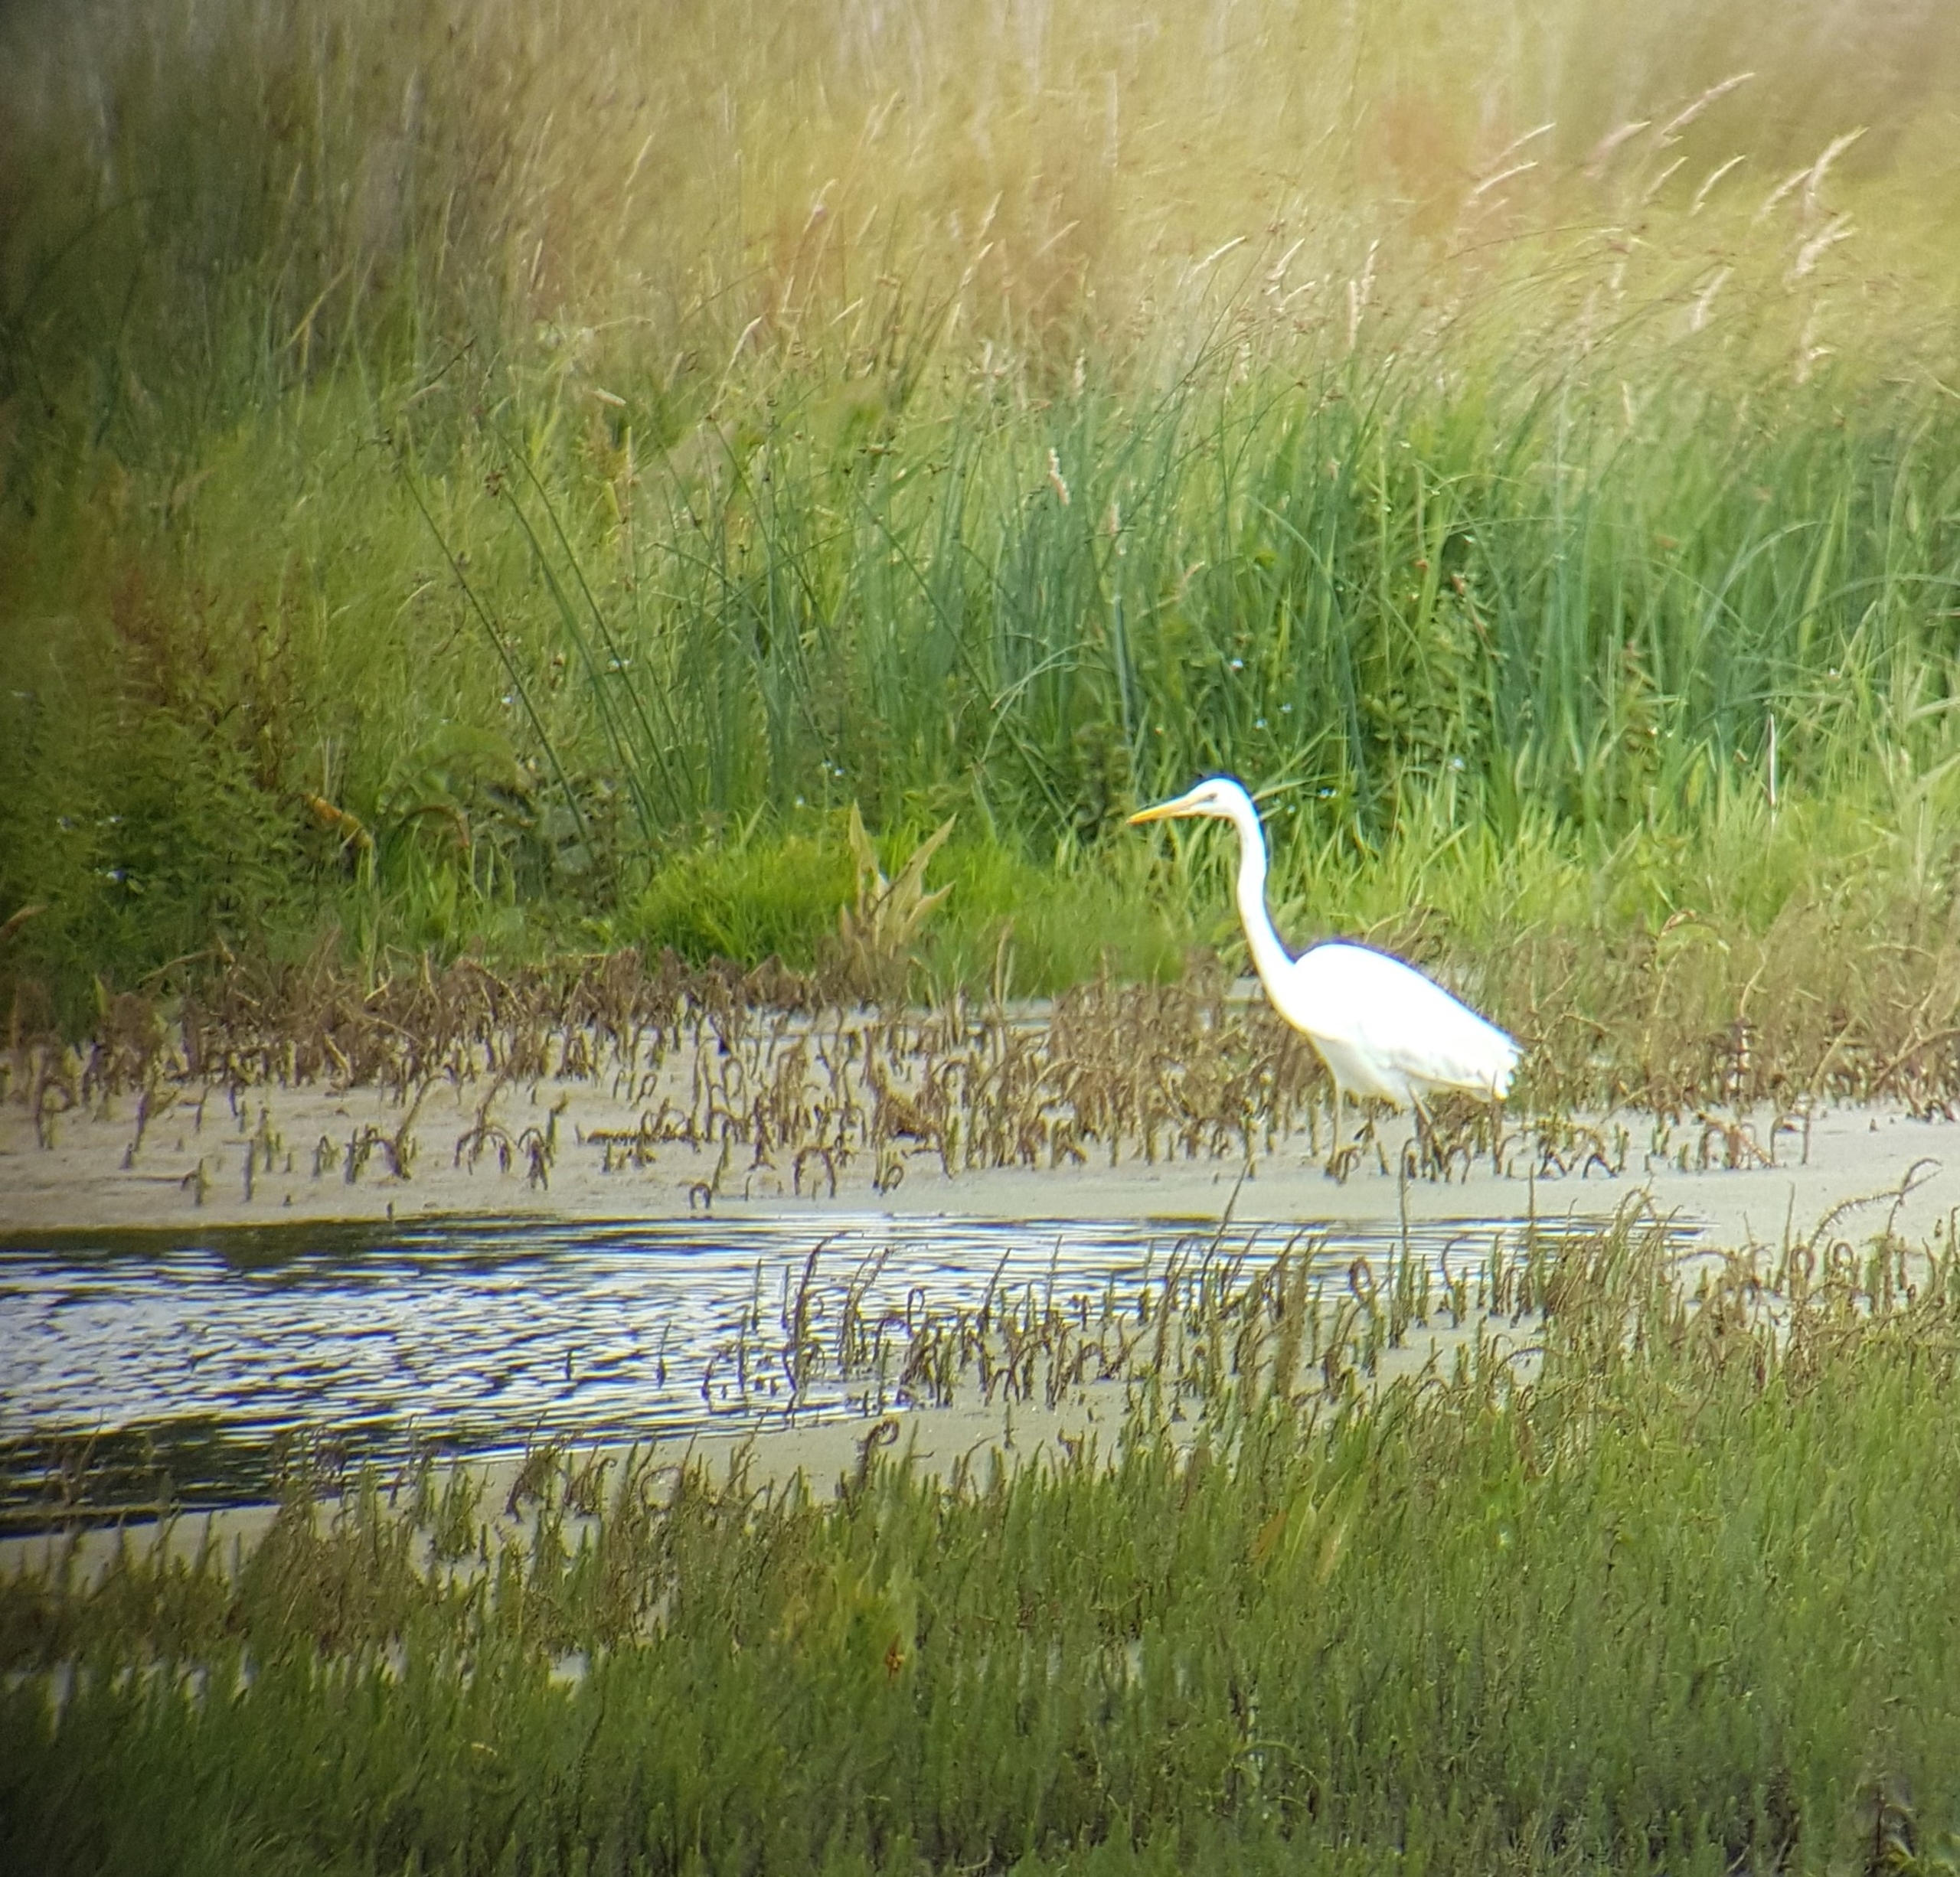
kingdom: Animalia
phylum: Chordata
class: Aves
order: Pelecaniformes
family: Ardeidae
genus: Ardea
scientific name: Ardea alba
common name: Sølvhejre
